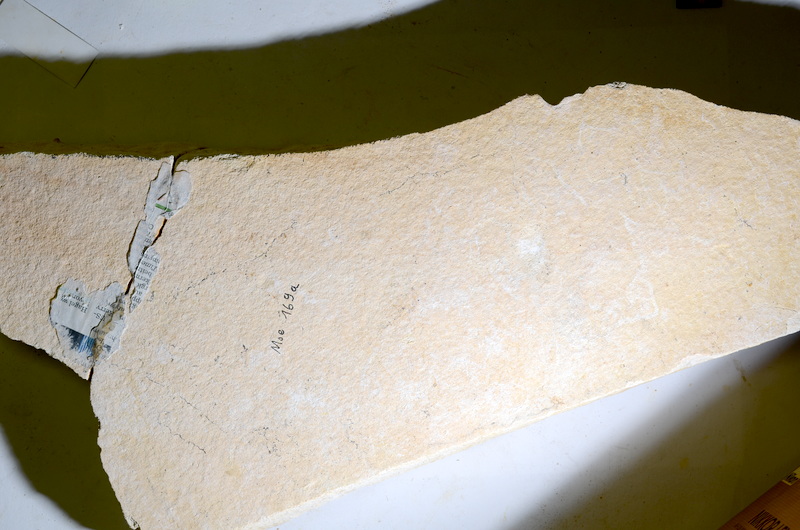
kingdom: Animalia
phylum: Chordata
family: Aspidorhynchidae
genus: Aspidorhynchus
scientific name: Aspidorhynchus acutirostris
